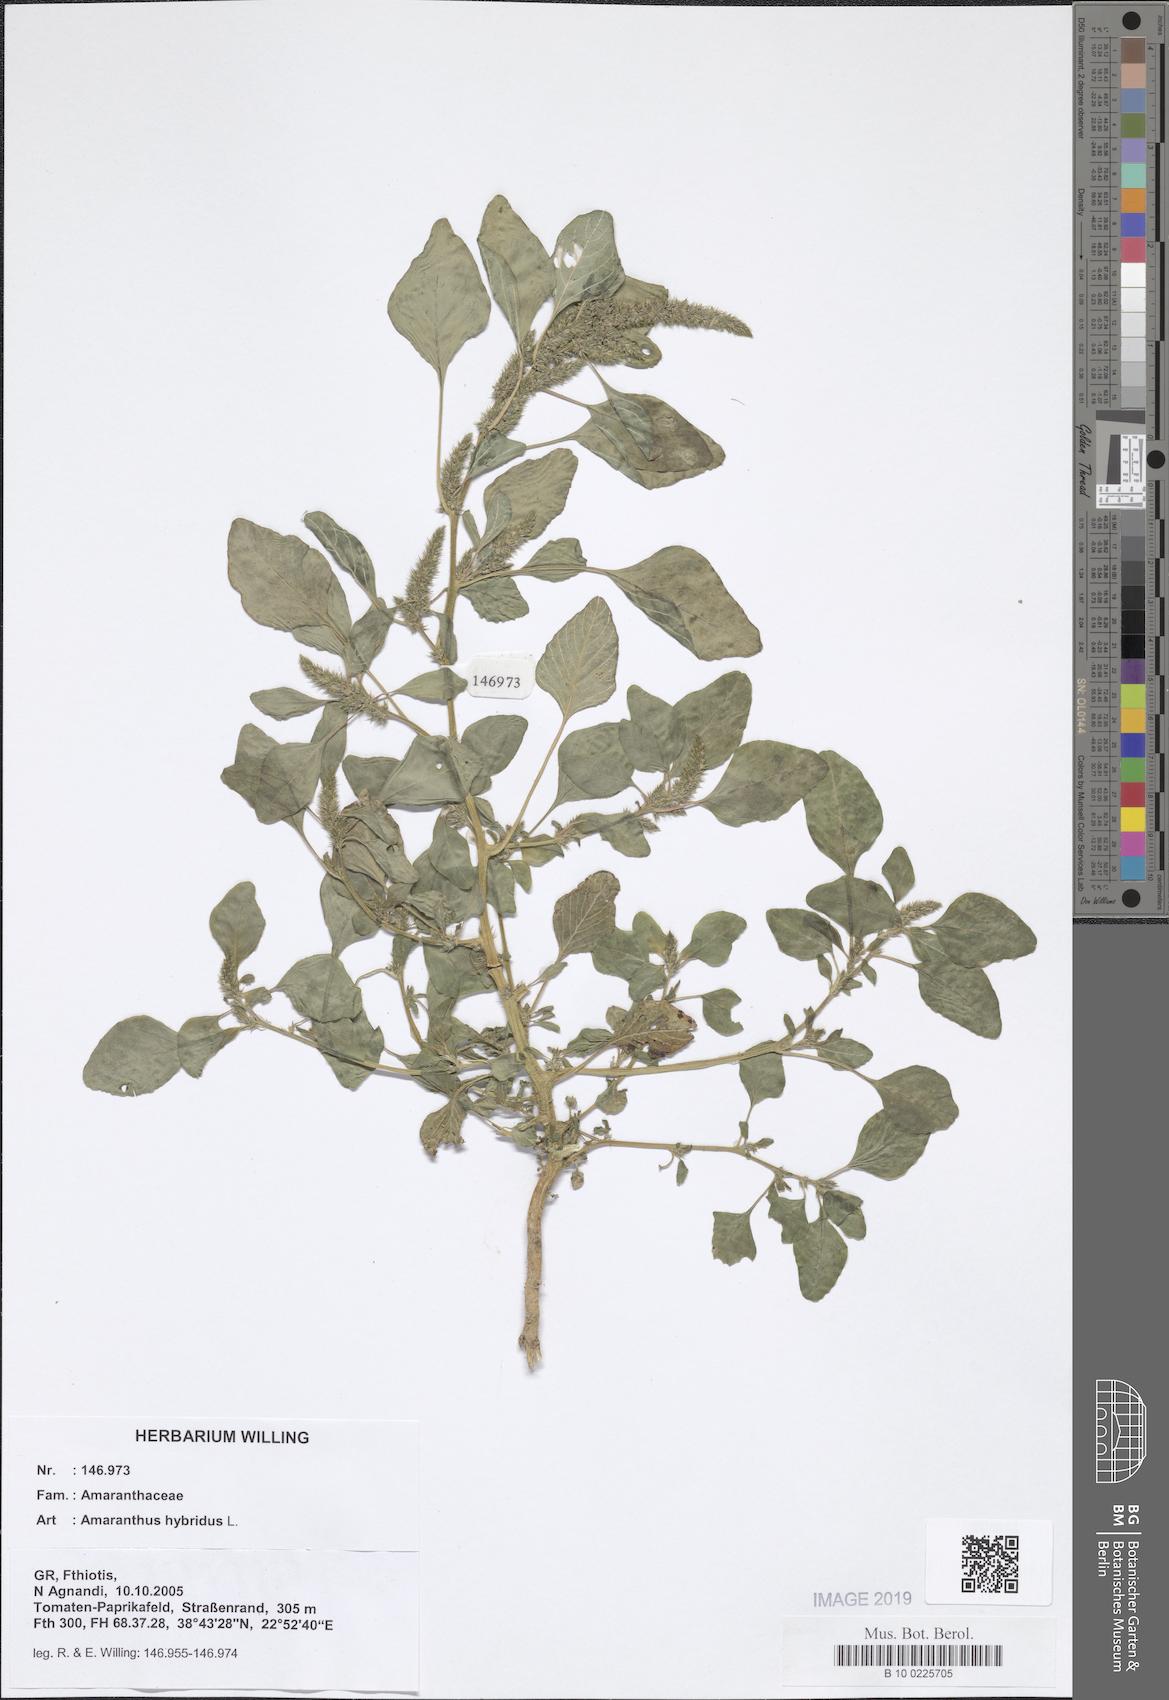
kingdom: Plantae
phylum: Tracheophyta
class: Magnoliopsida
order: Caryophyllales
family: Amaranthaceae
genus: Amaranthus
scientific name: Amaranthus hybridus
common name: Green amaranth
